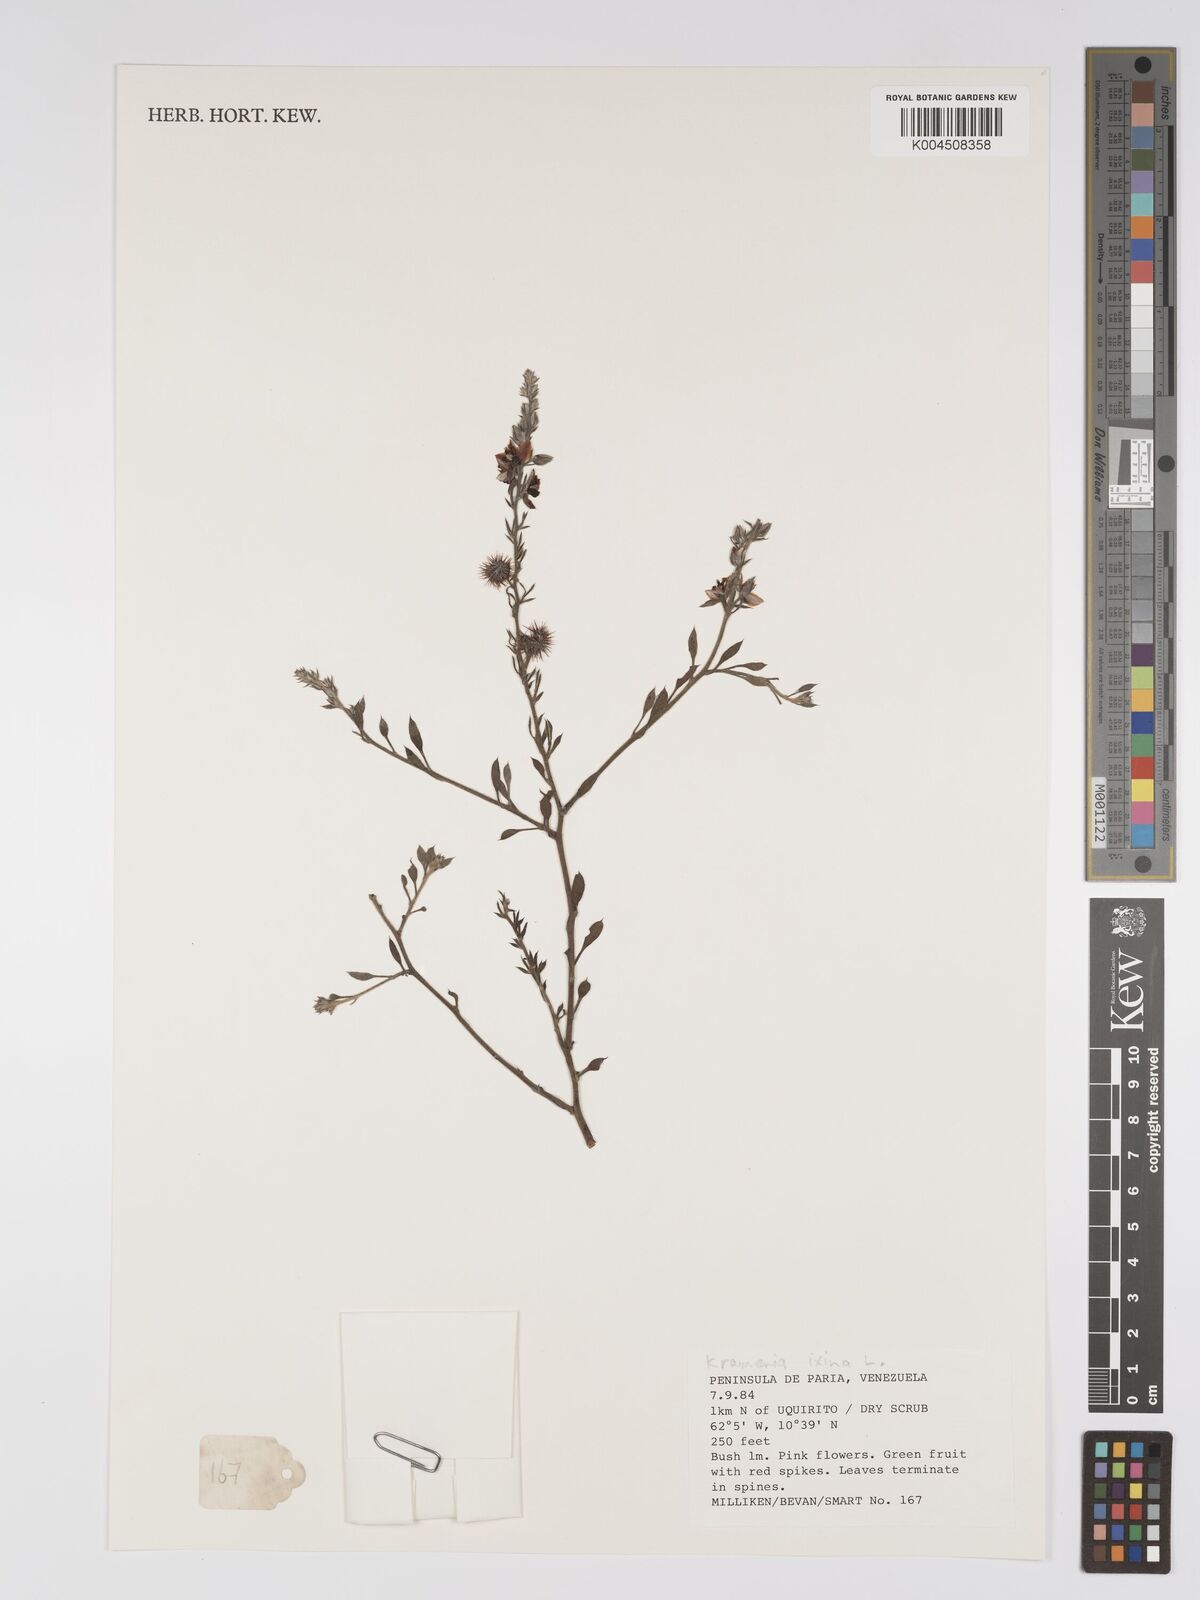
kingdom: Plantae
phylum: Tracheophyta
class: Magnoliopsida
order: Zygophyllales
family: Krameriaceae
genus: Krameria
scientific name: Krameria ixine
